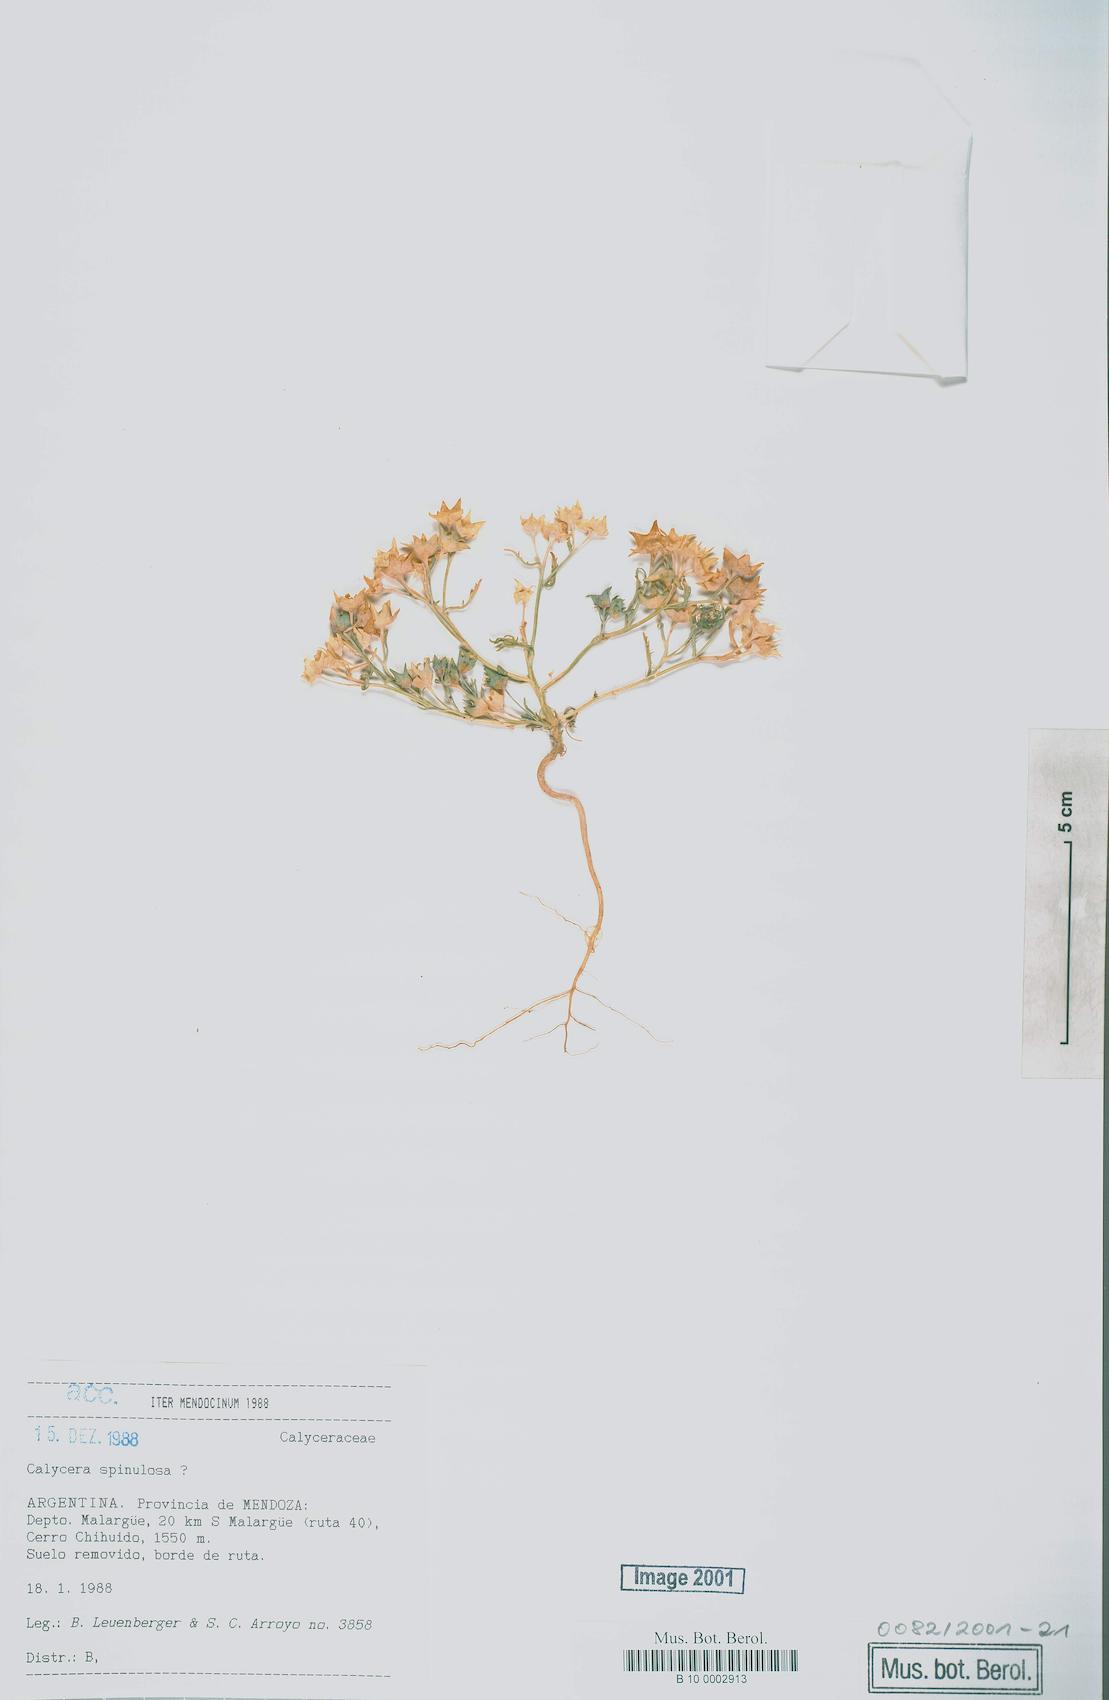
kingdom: Plantae
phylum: Tracheophyta
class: Magnoliopsida
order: Asterales
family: Calyceraceae
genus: Calycera
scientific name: Calycera crassifolia
